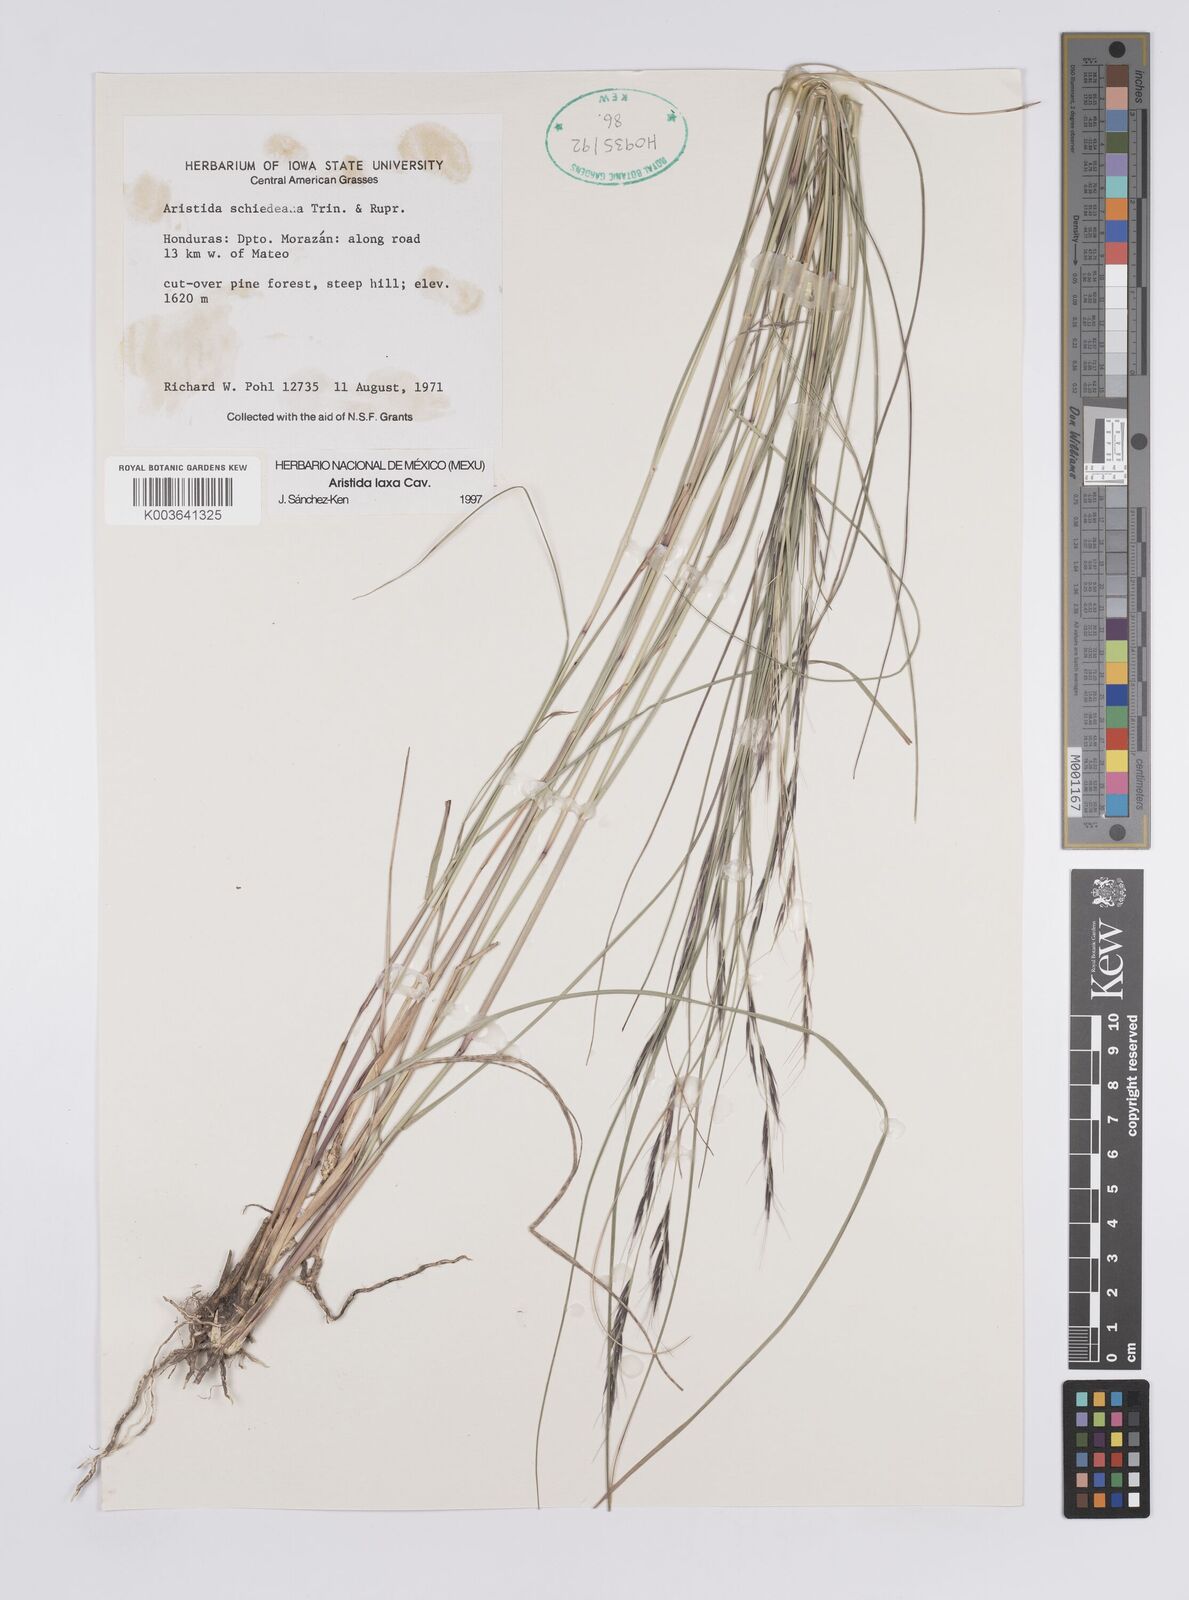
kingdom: Plantae
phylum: Tracheophyta
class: Liliopsida
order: Poales
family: Poaceae
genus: Aristida
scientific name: Aristida laxa
